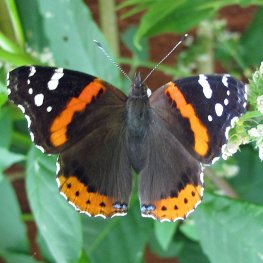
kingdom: Animalia
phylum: Arthropoda
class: Insecta
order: Lepidoptera
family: Nymphalidae
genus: Vanessa
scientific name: Vanessa atalanta
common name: Red Admiral
